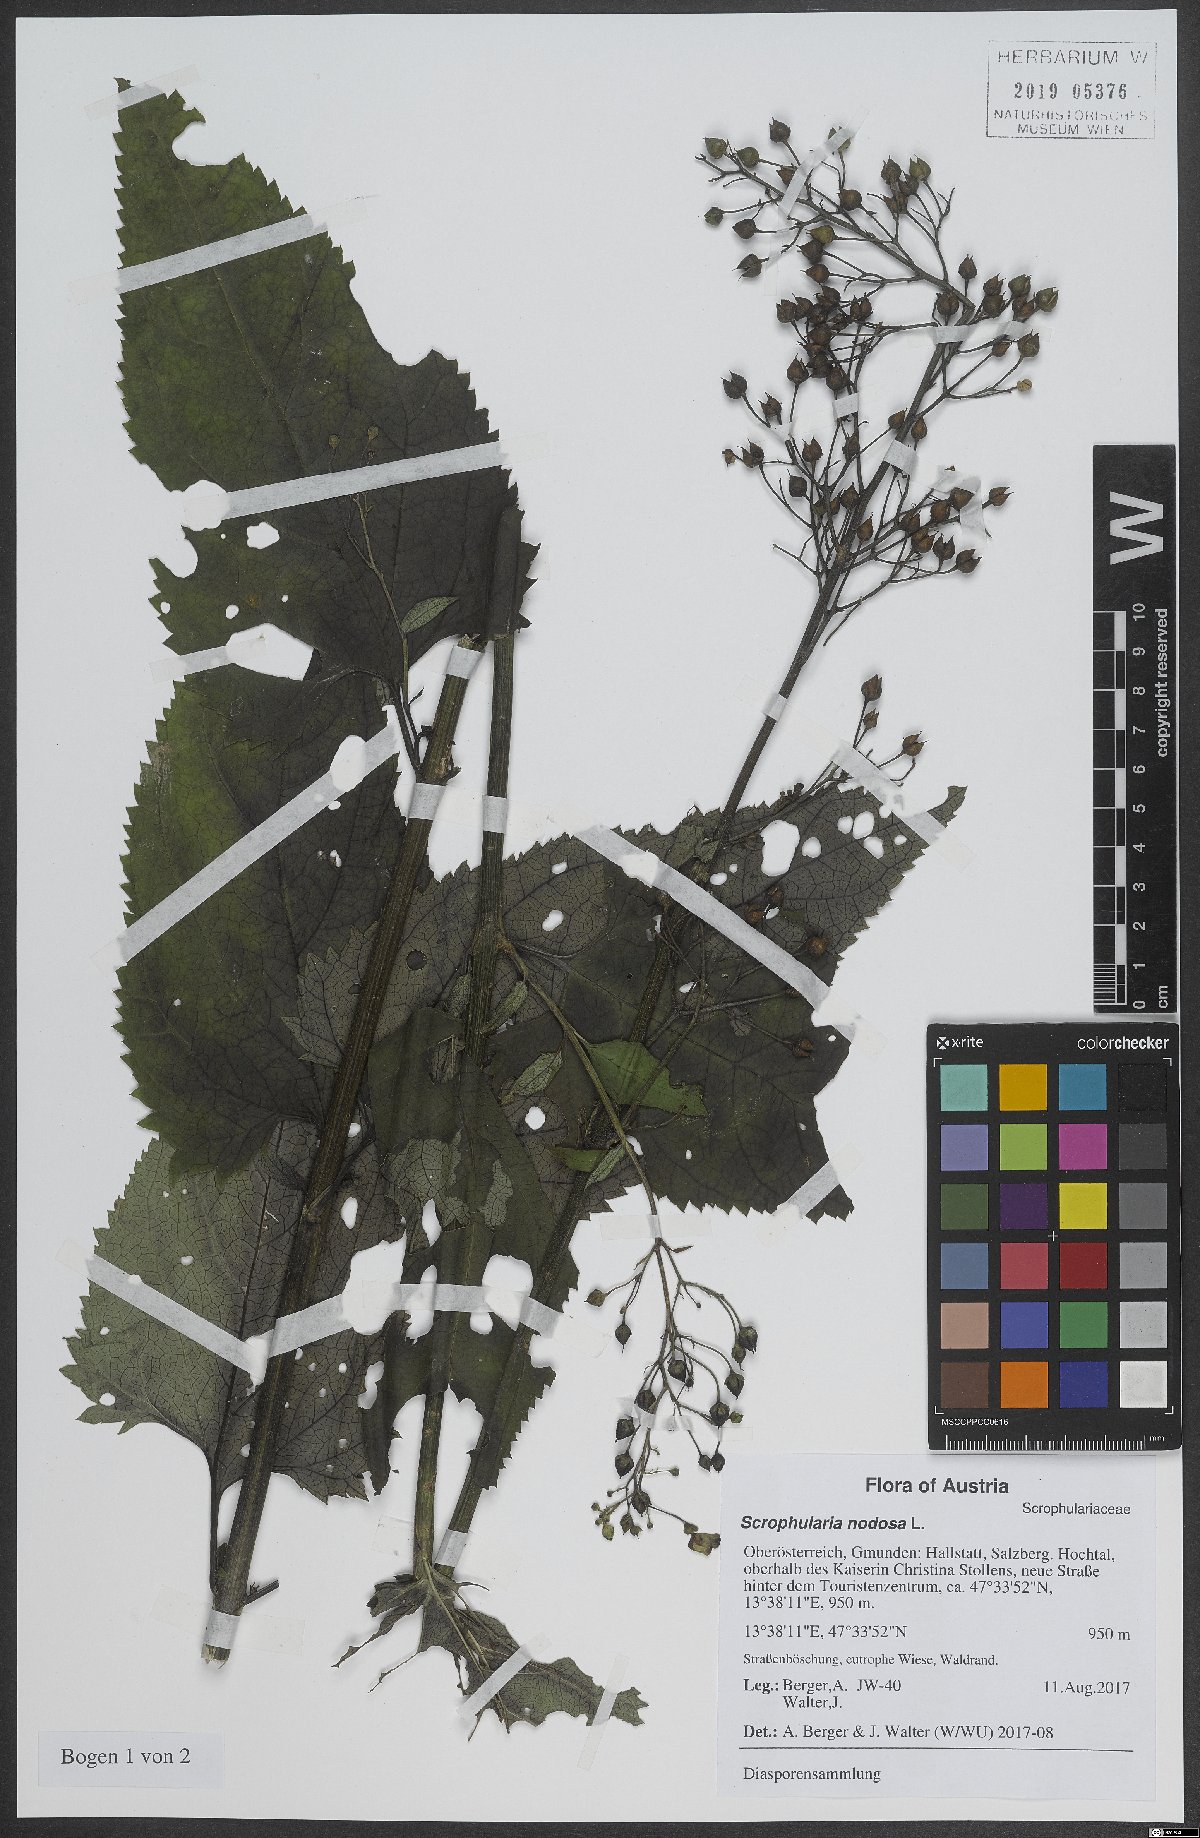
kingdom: Plantae
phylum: Tracheophyta
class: Magnoliopsida
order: Lamiales
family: Scrophulariaceae
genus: Scrophularia
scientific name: Scrophularia nodosa
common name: Common figwort
